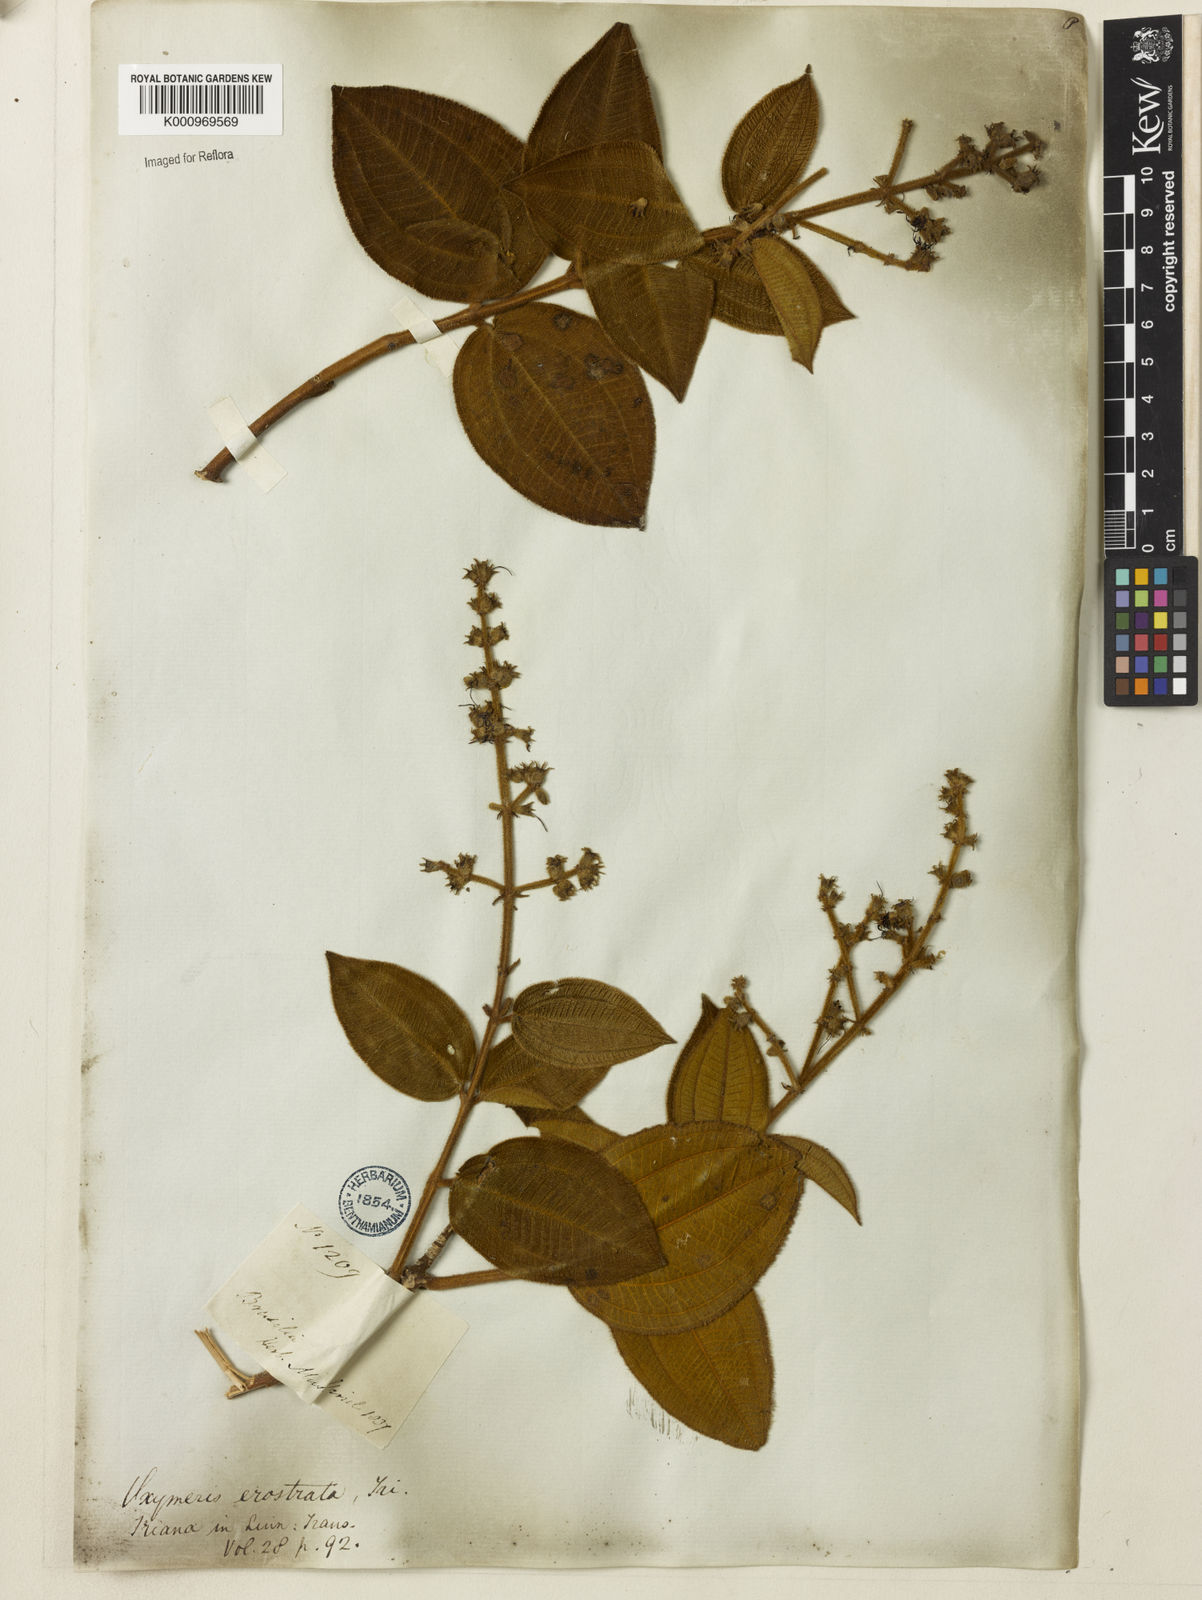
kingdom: Plantae
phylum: Tracheophyta
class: Magnoliopsida
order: Myrtales
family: Melastomataceae
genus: Miconia
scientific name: Miconia erostrata
